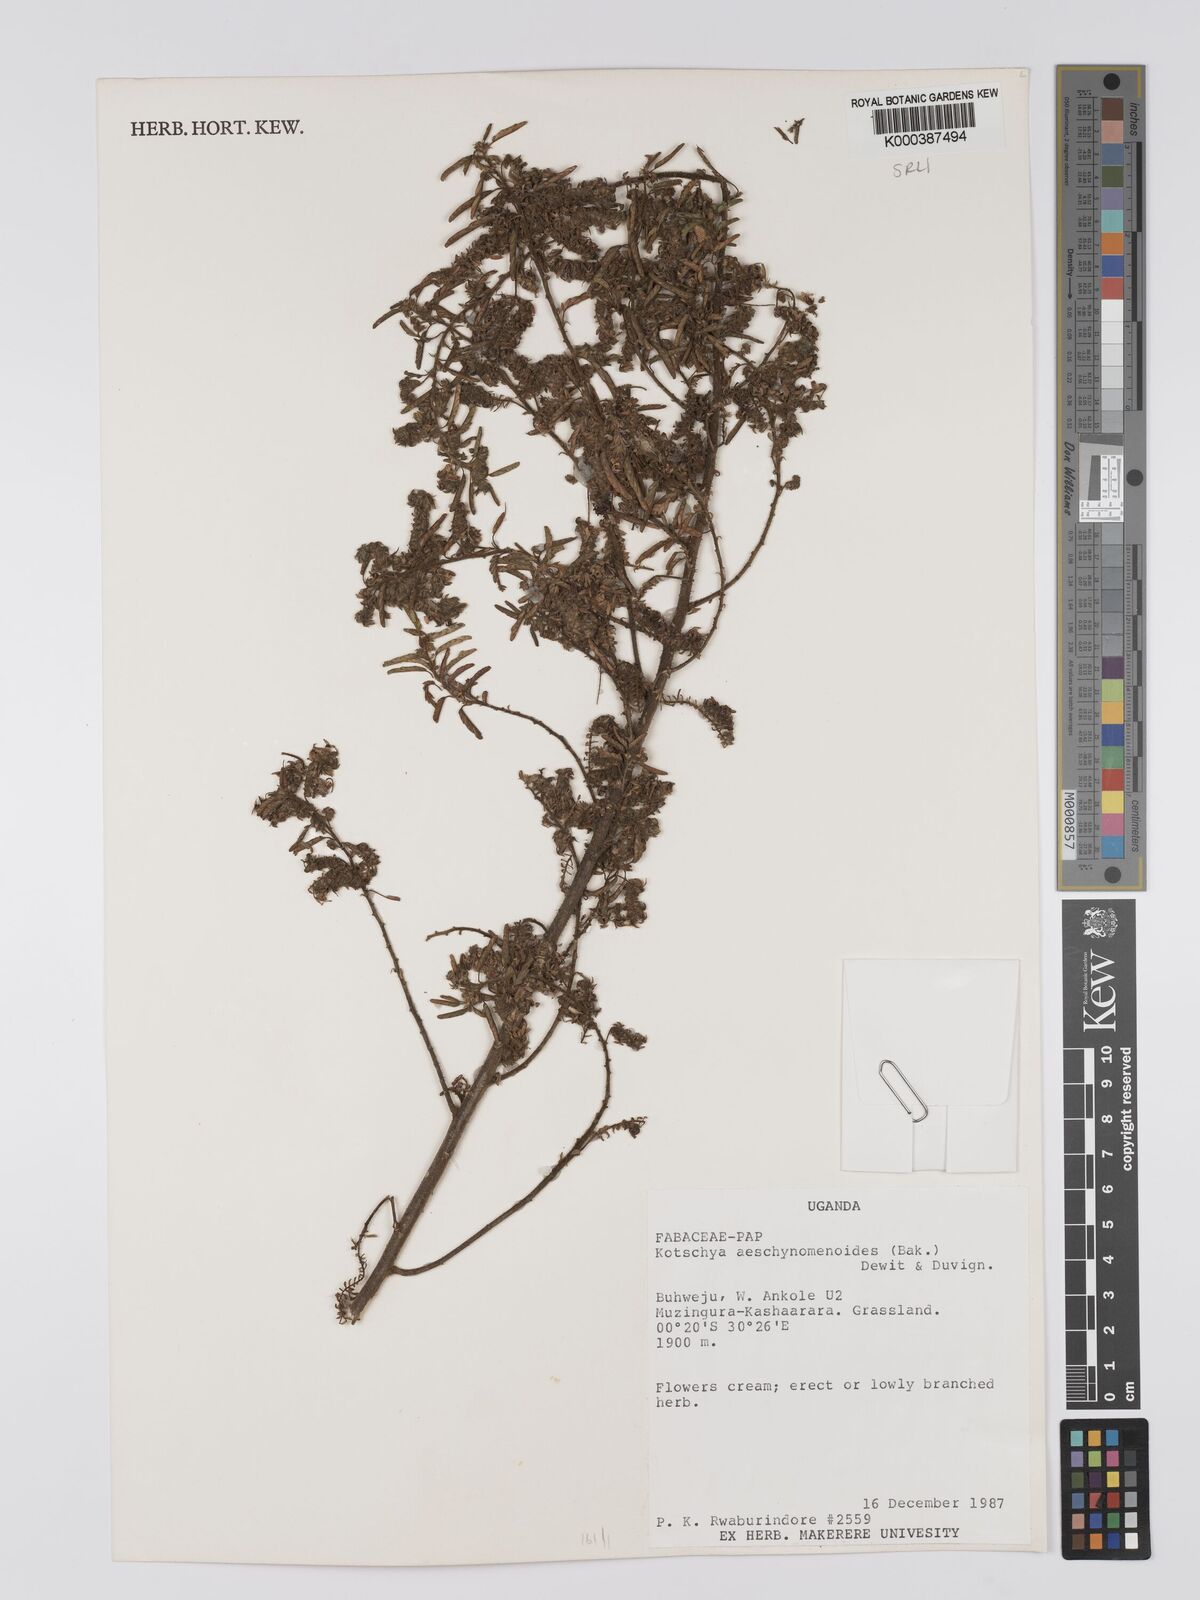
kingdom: Plantae
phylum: Tracheophyta
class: Magnoliopsida
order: Fabales
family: Fabaceae
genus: Kotschya
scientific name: Kotschya aeschynomenoides
